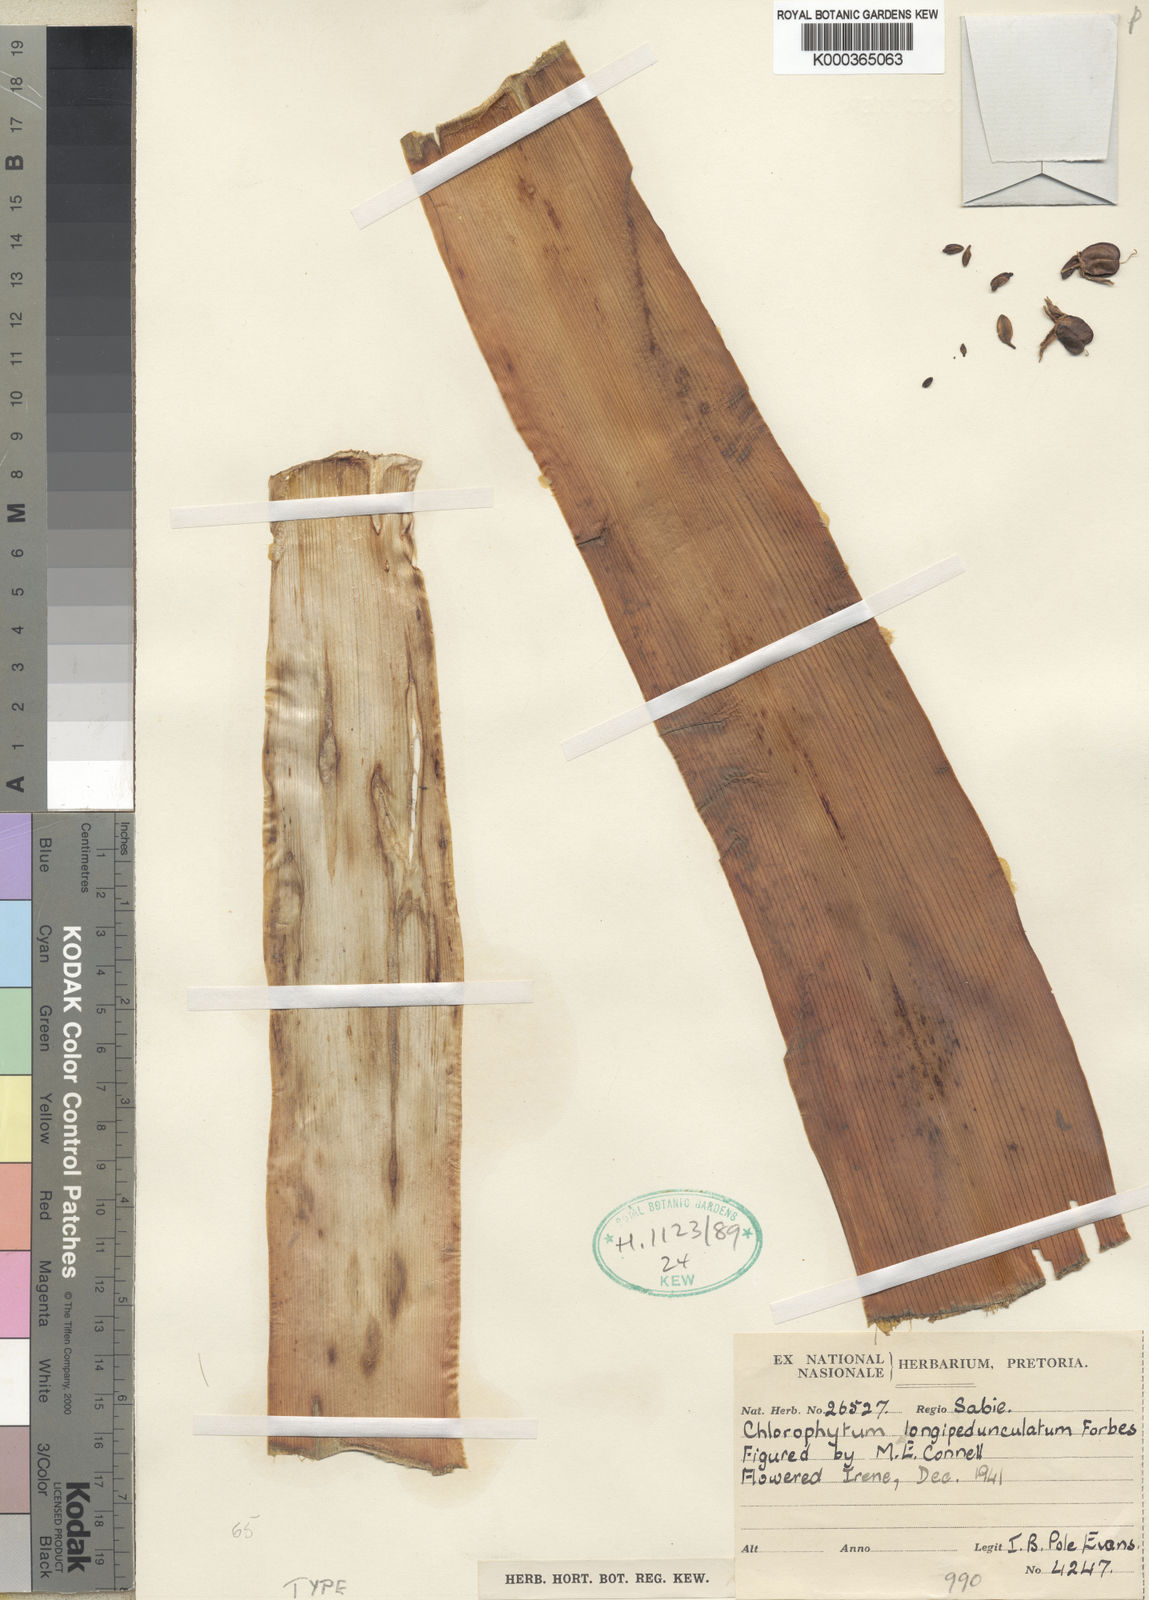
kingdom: Plantae
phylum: Tracheophyta
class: Liliopsida
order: Asparagales
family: Asparagaceae
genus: Chlorophytum
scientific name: Chlorophytum
